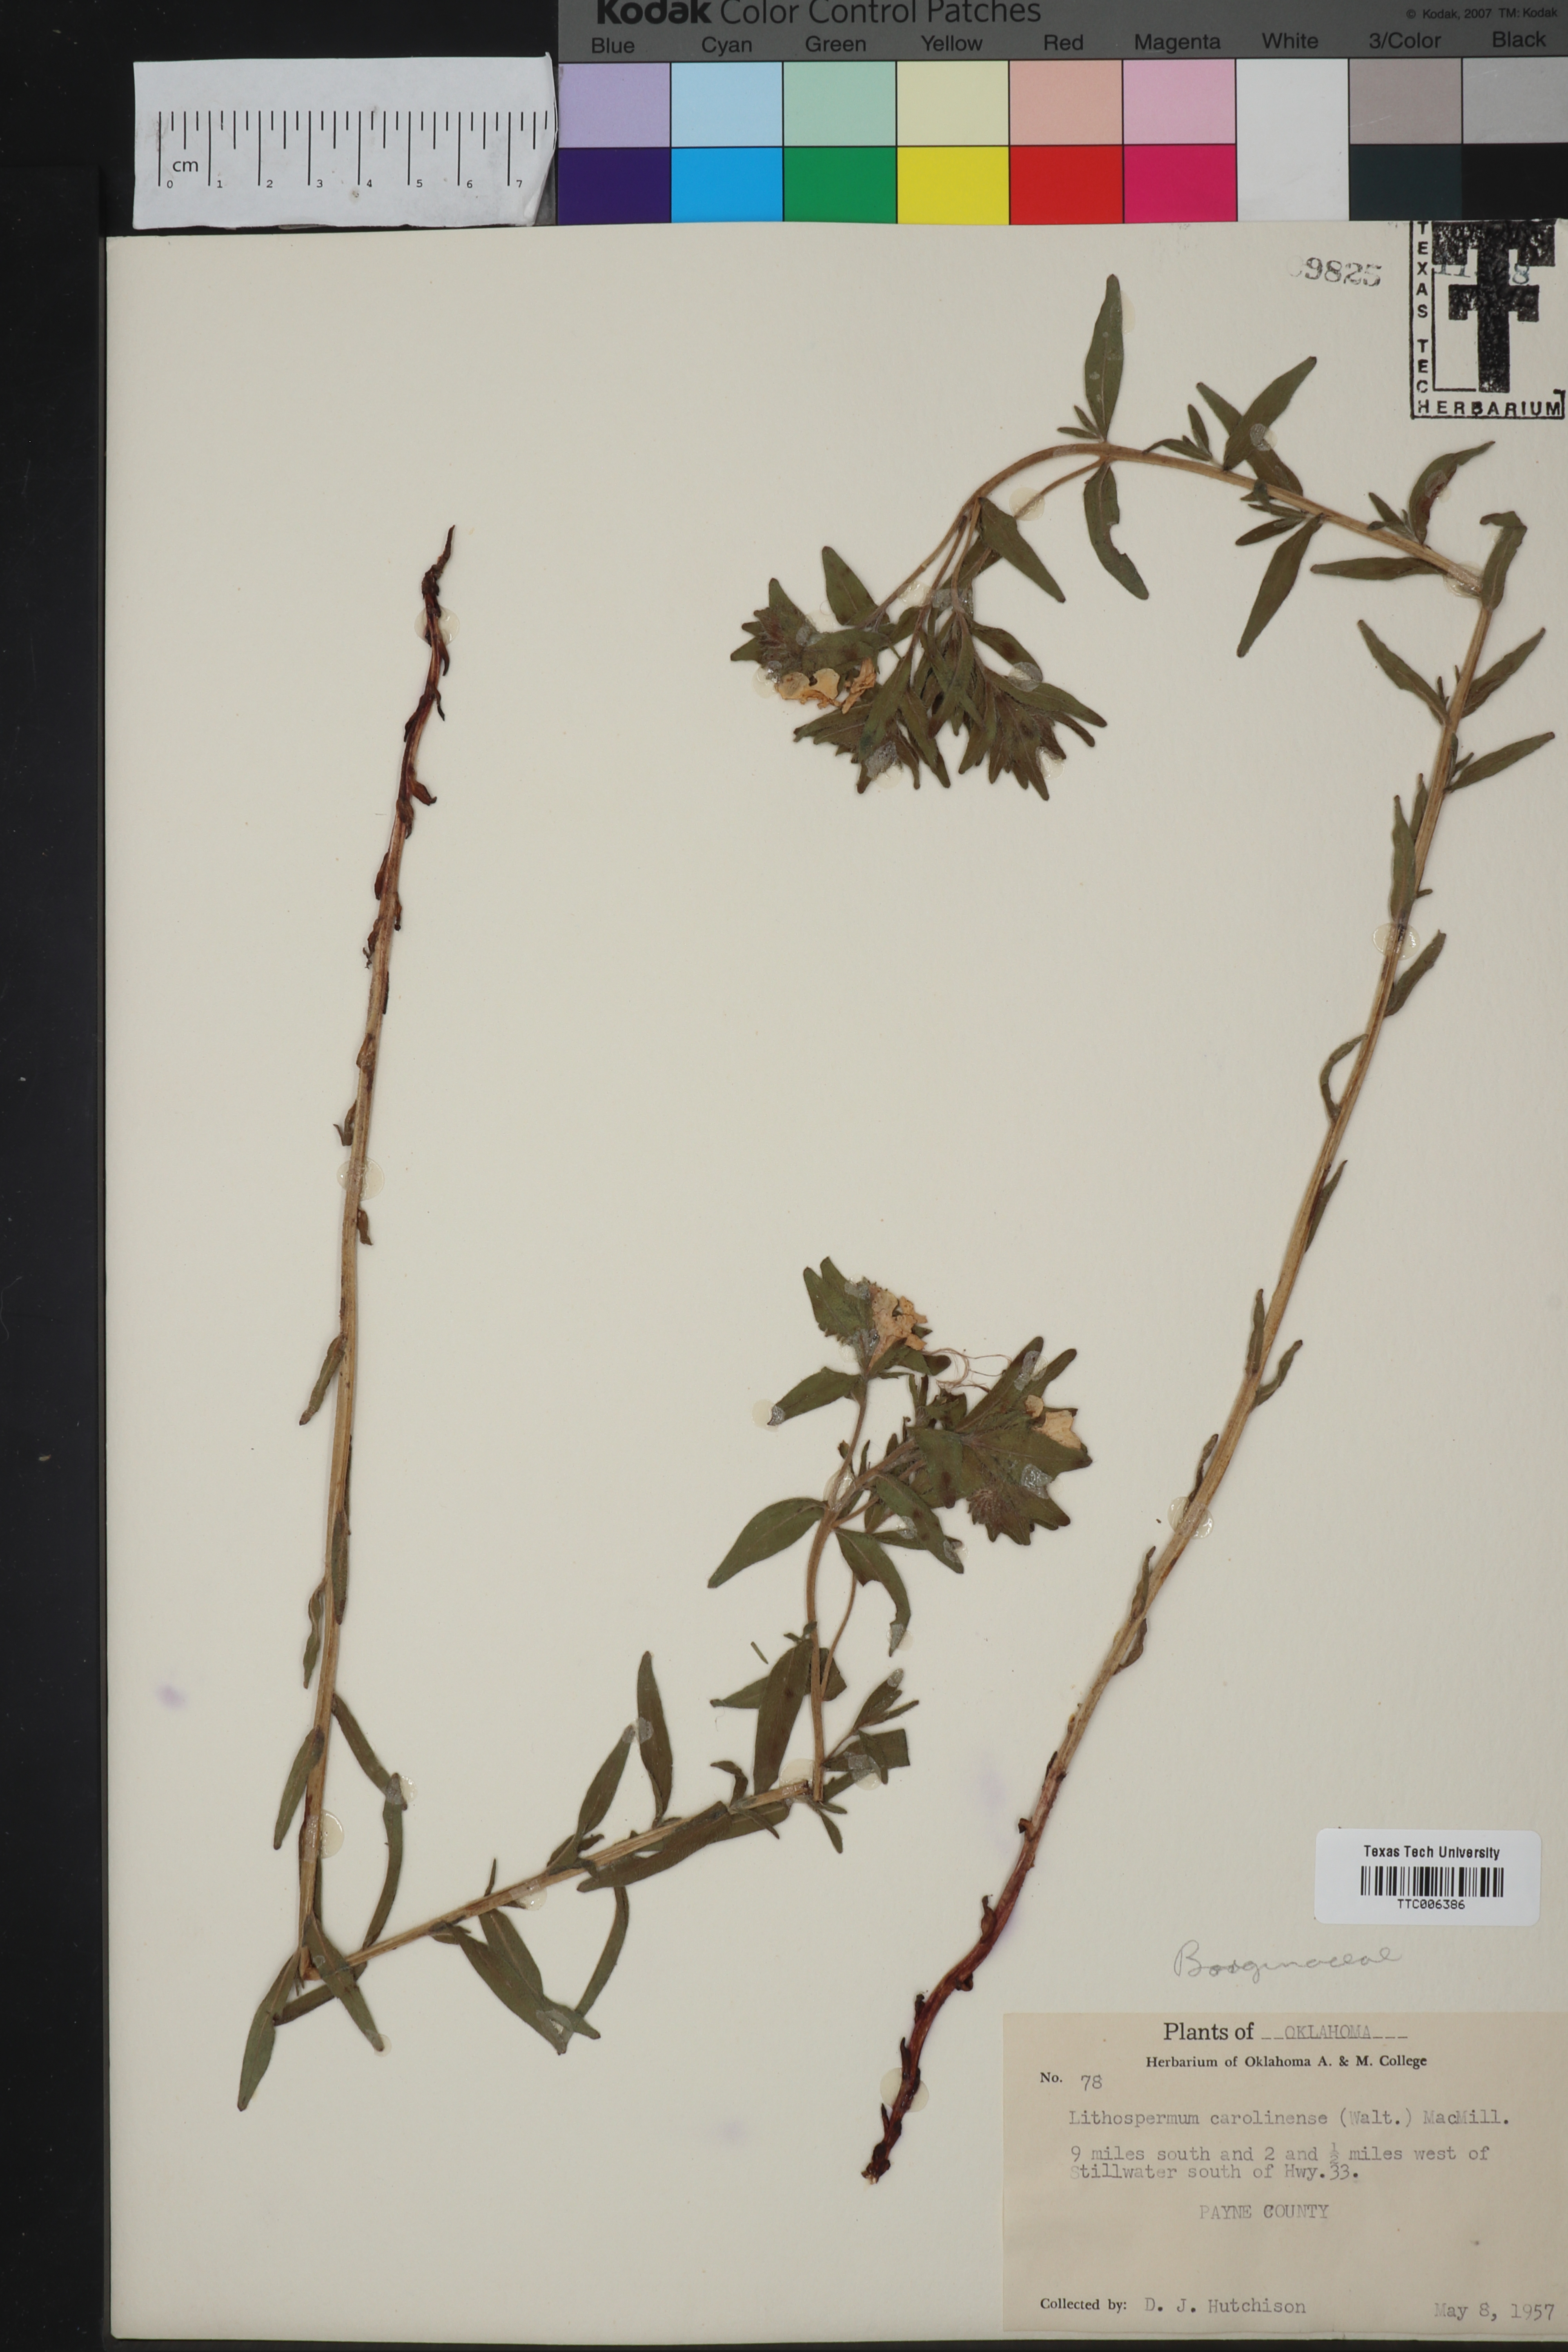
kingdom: Plantae
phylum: Tracheophyta
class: Magnoliopsida
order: Boraginales
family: Boraginaceae
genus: Lithospermum
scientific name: Lithospermum carolinense
